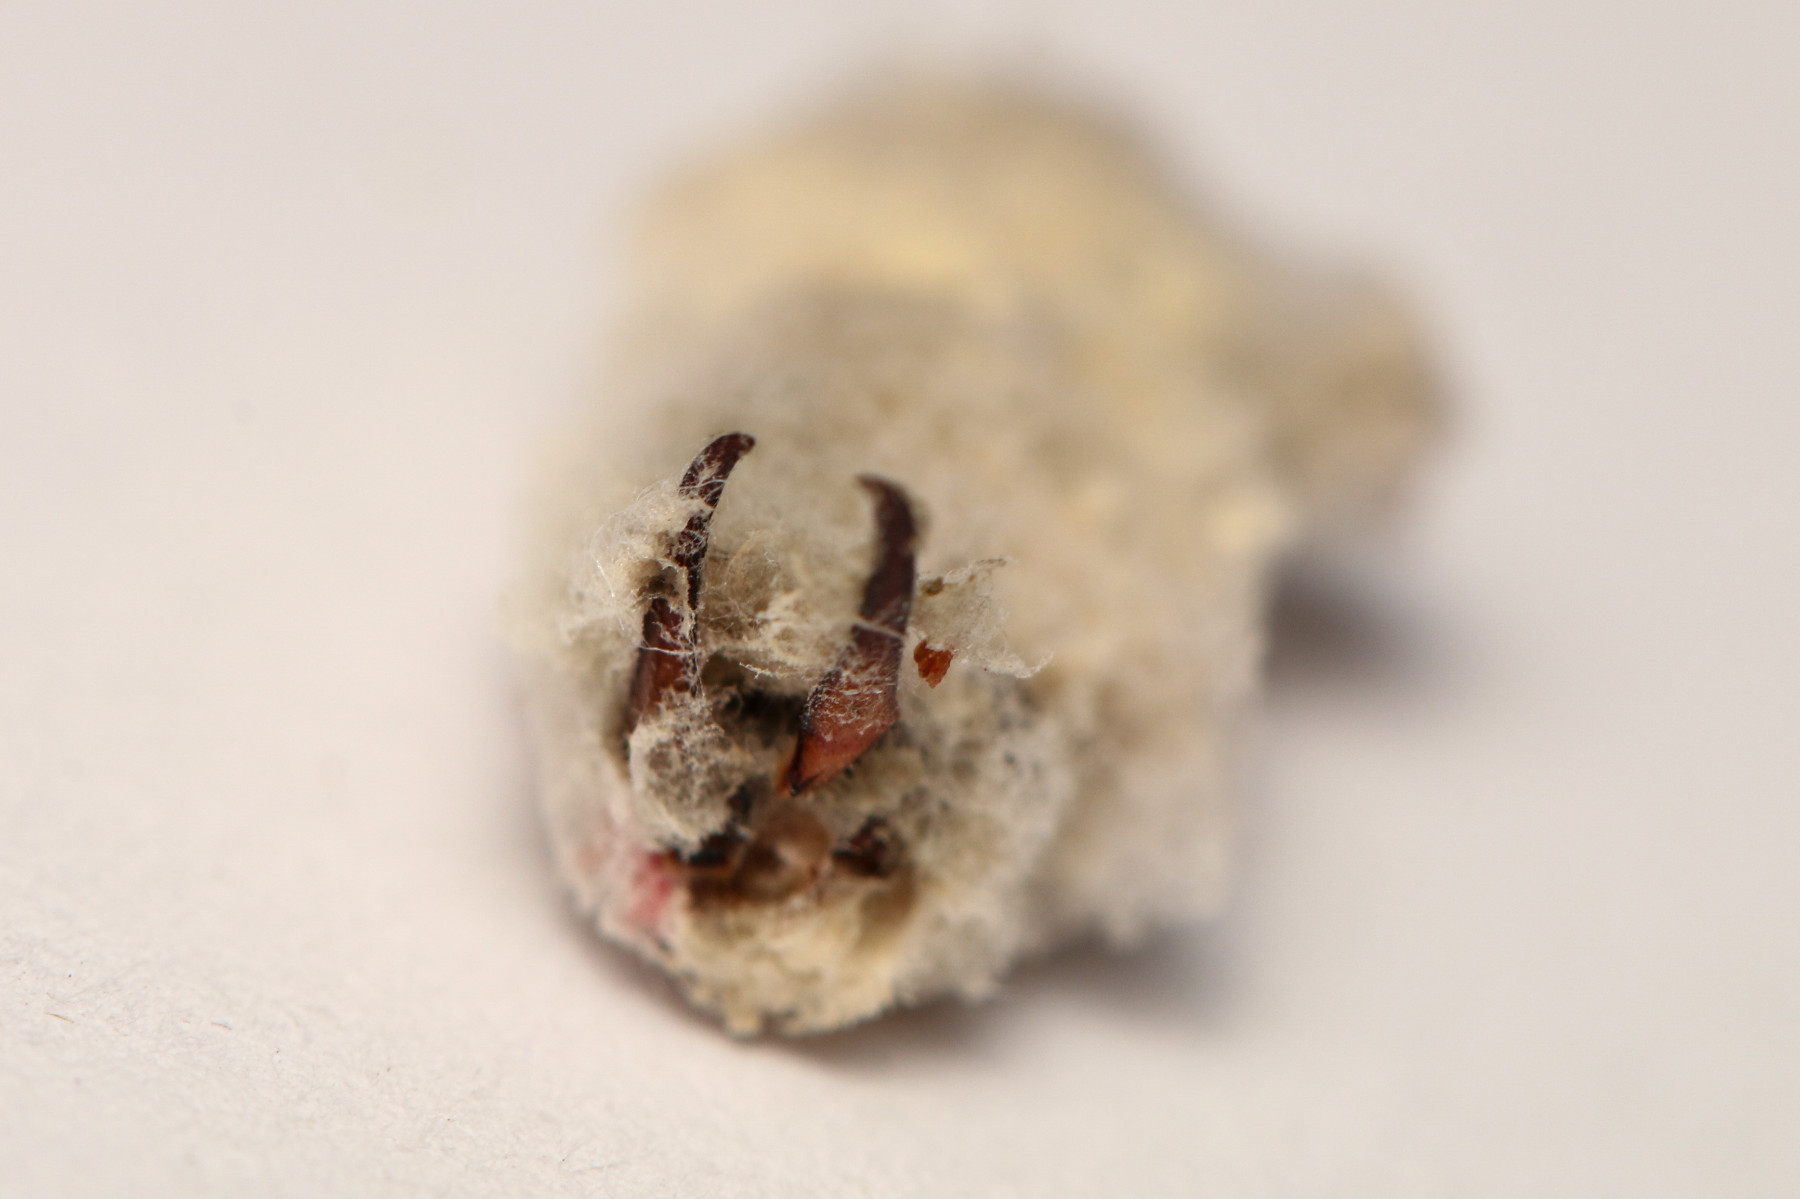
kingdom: Fungi
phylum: Entomophthoromycota
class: Entomophthoromycetes
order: Entomophthorales
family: Entomophthoraceae
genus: Zoophthora
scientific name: Zoophthora forficulae
